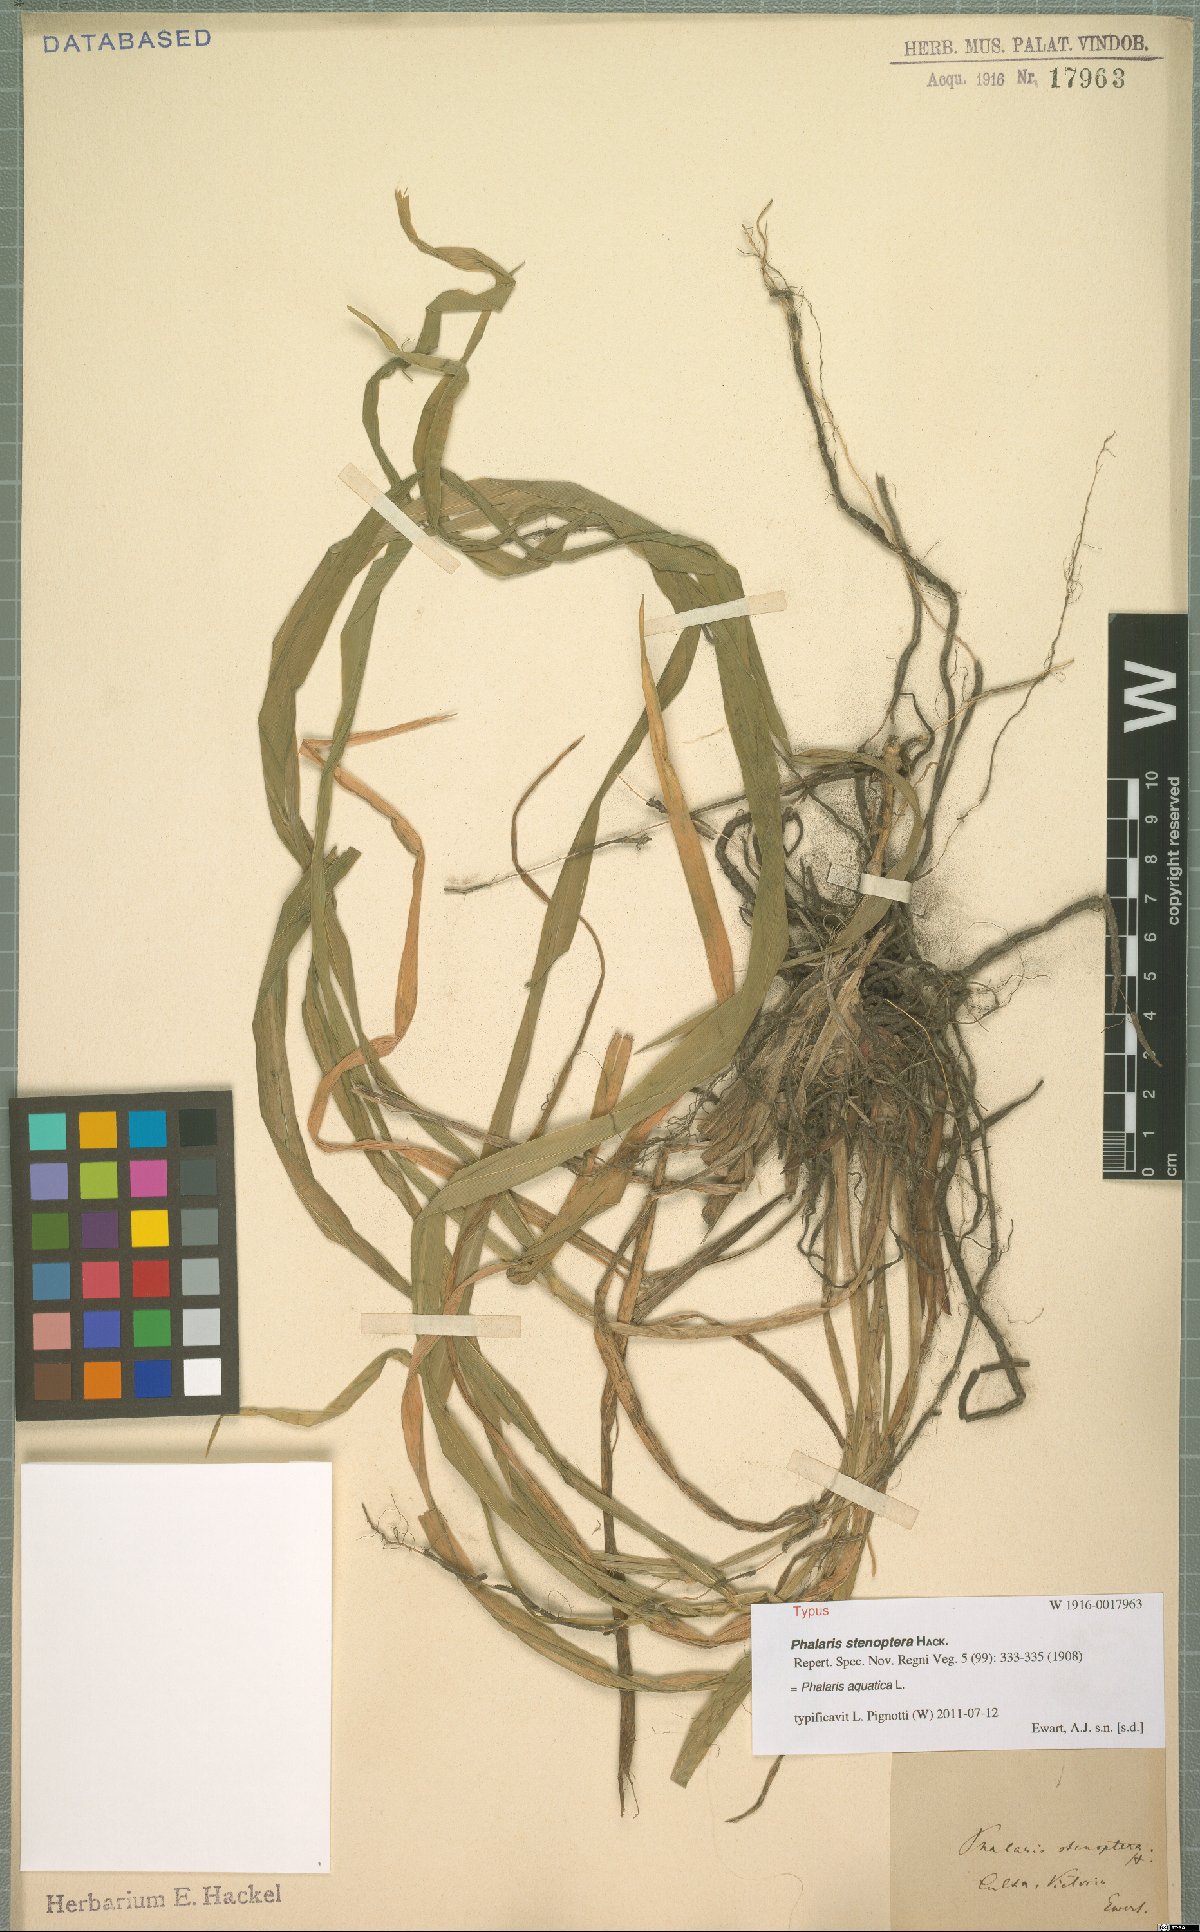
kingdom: Plantae
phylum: Tracheophyta
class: Liliopsida
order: Poales
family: Poaceae
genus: Phalaris
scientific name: Phalaris aquatica
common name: Bulbous canary-grass
